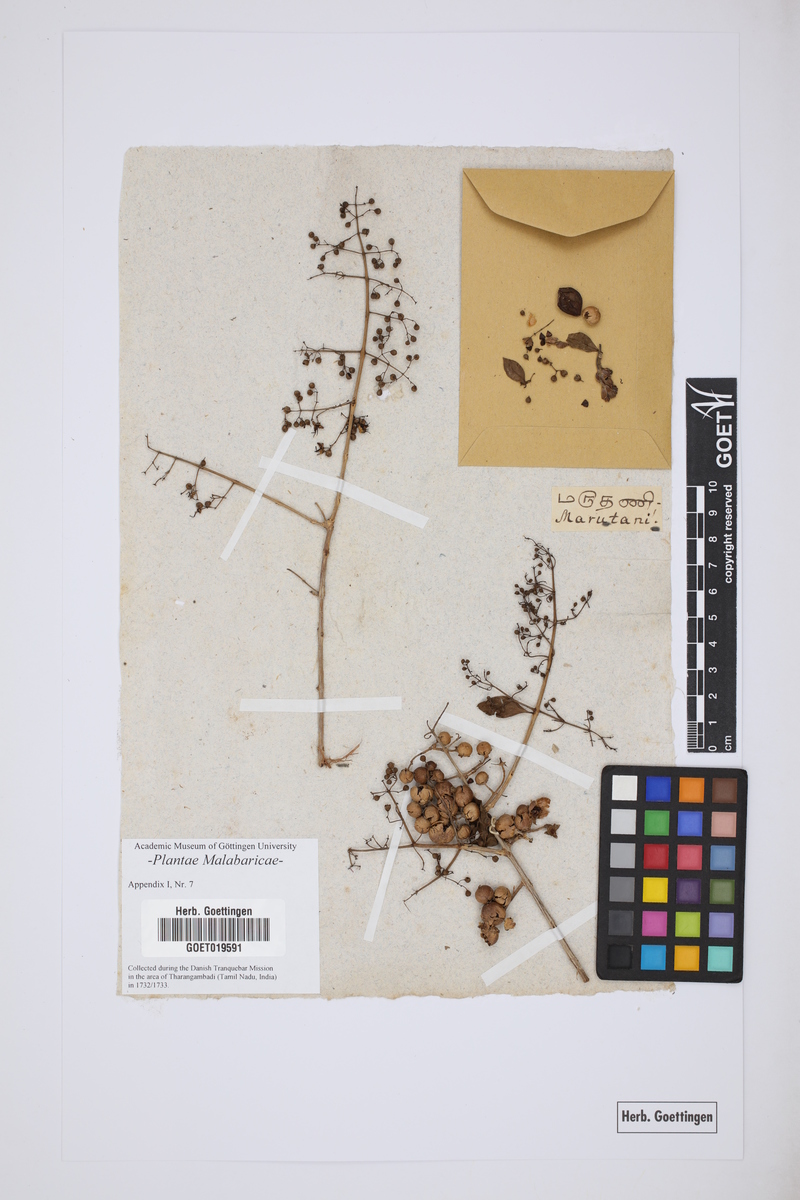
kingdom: Plantae
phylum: Tracheophyta
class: Magnoliopsida
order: Myrtales
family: Lythraceae
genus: Lawsonia
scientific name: Lawsonia inermis
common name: Henna
